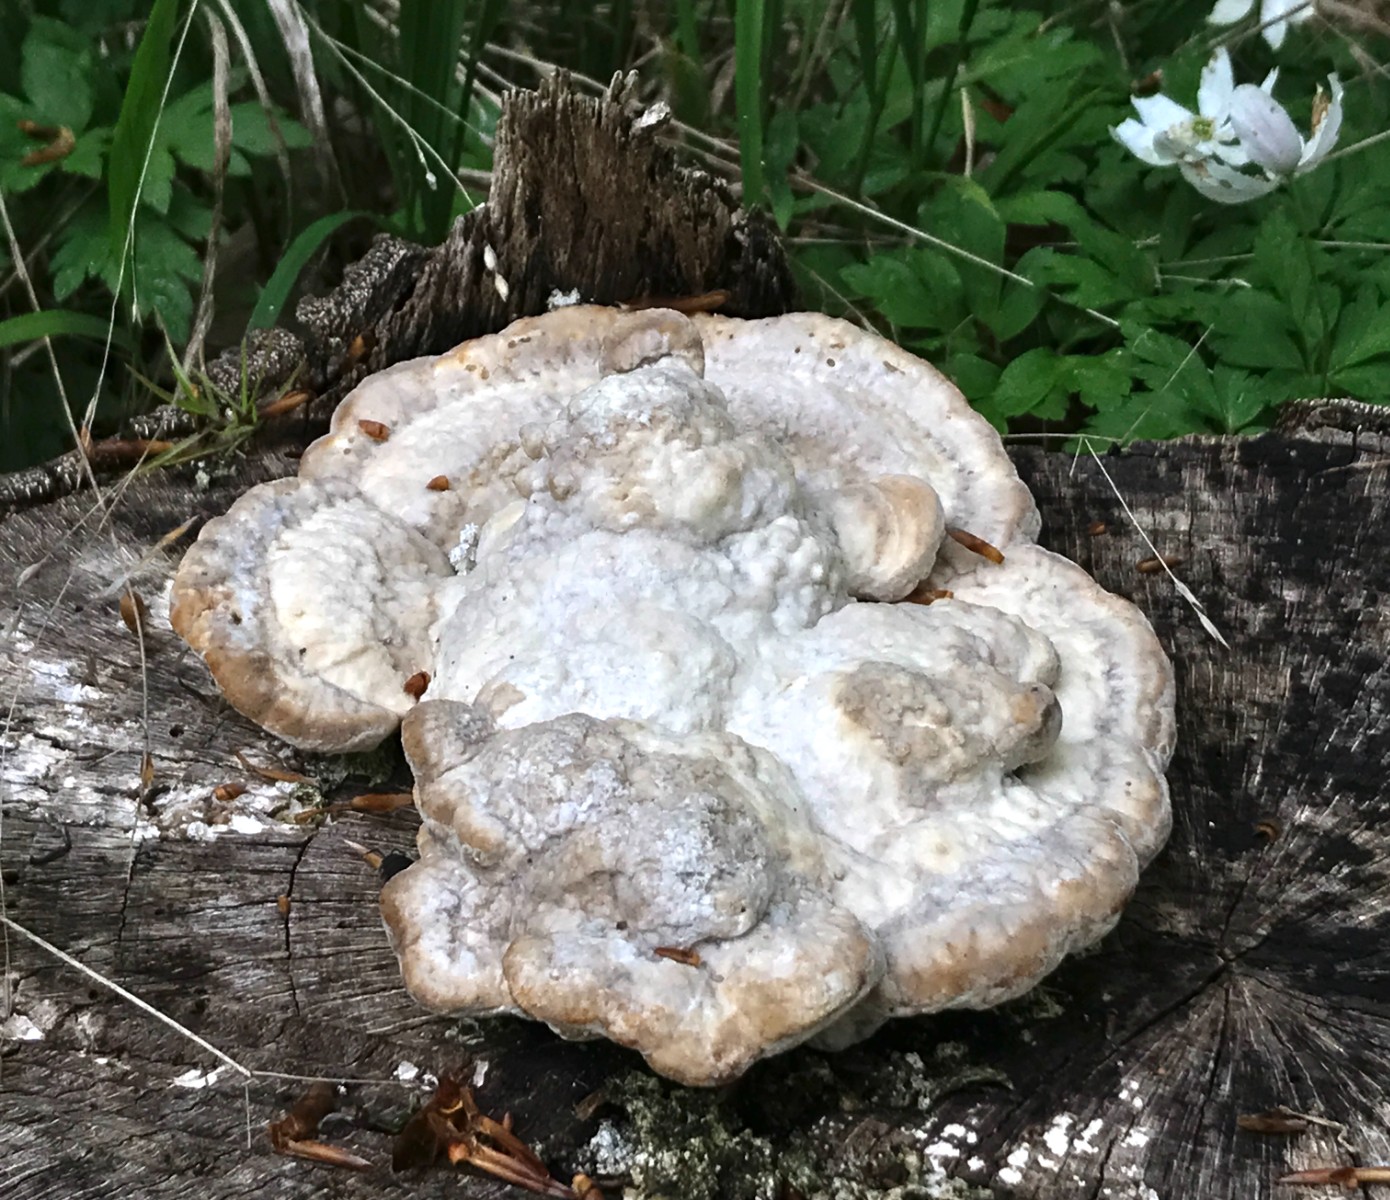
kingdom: Fungi
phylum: Basidiomycota
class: Agaricomycetes
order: Polyporales
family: Polyporaceae
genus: Trametes
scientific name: Trametes gibbosa
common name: puklet læderporesvamp
